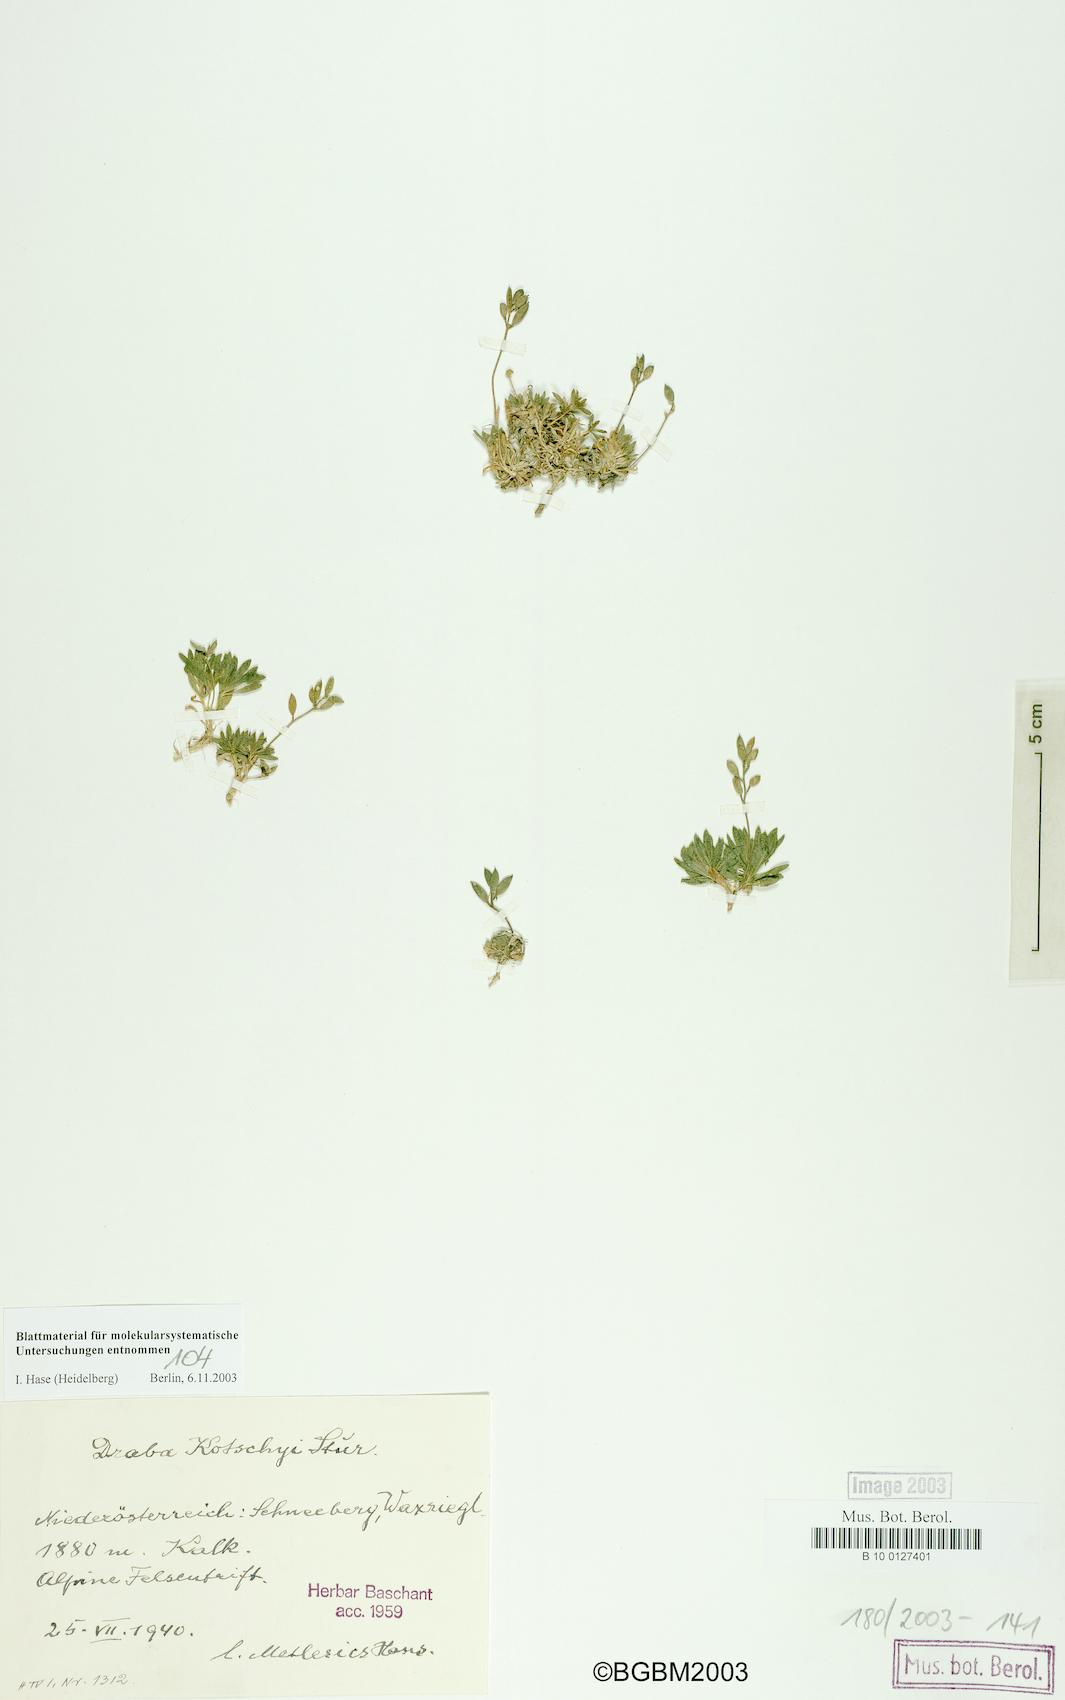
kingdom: Plantae
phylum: Tracheophyta
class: Magnoliopsida
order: Brassicales
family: Brassicaceae
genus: Draba
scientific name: Draba kotschyi
